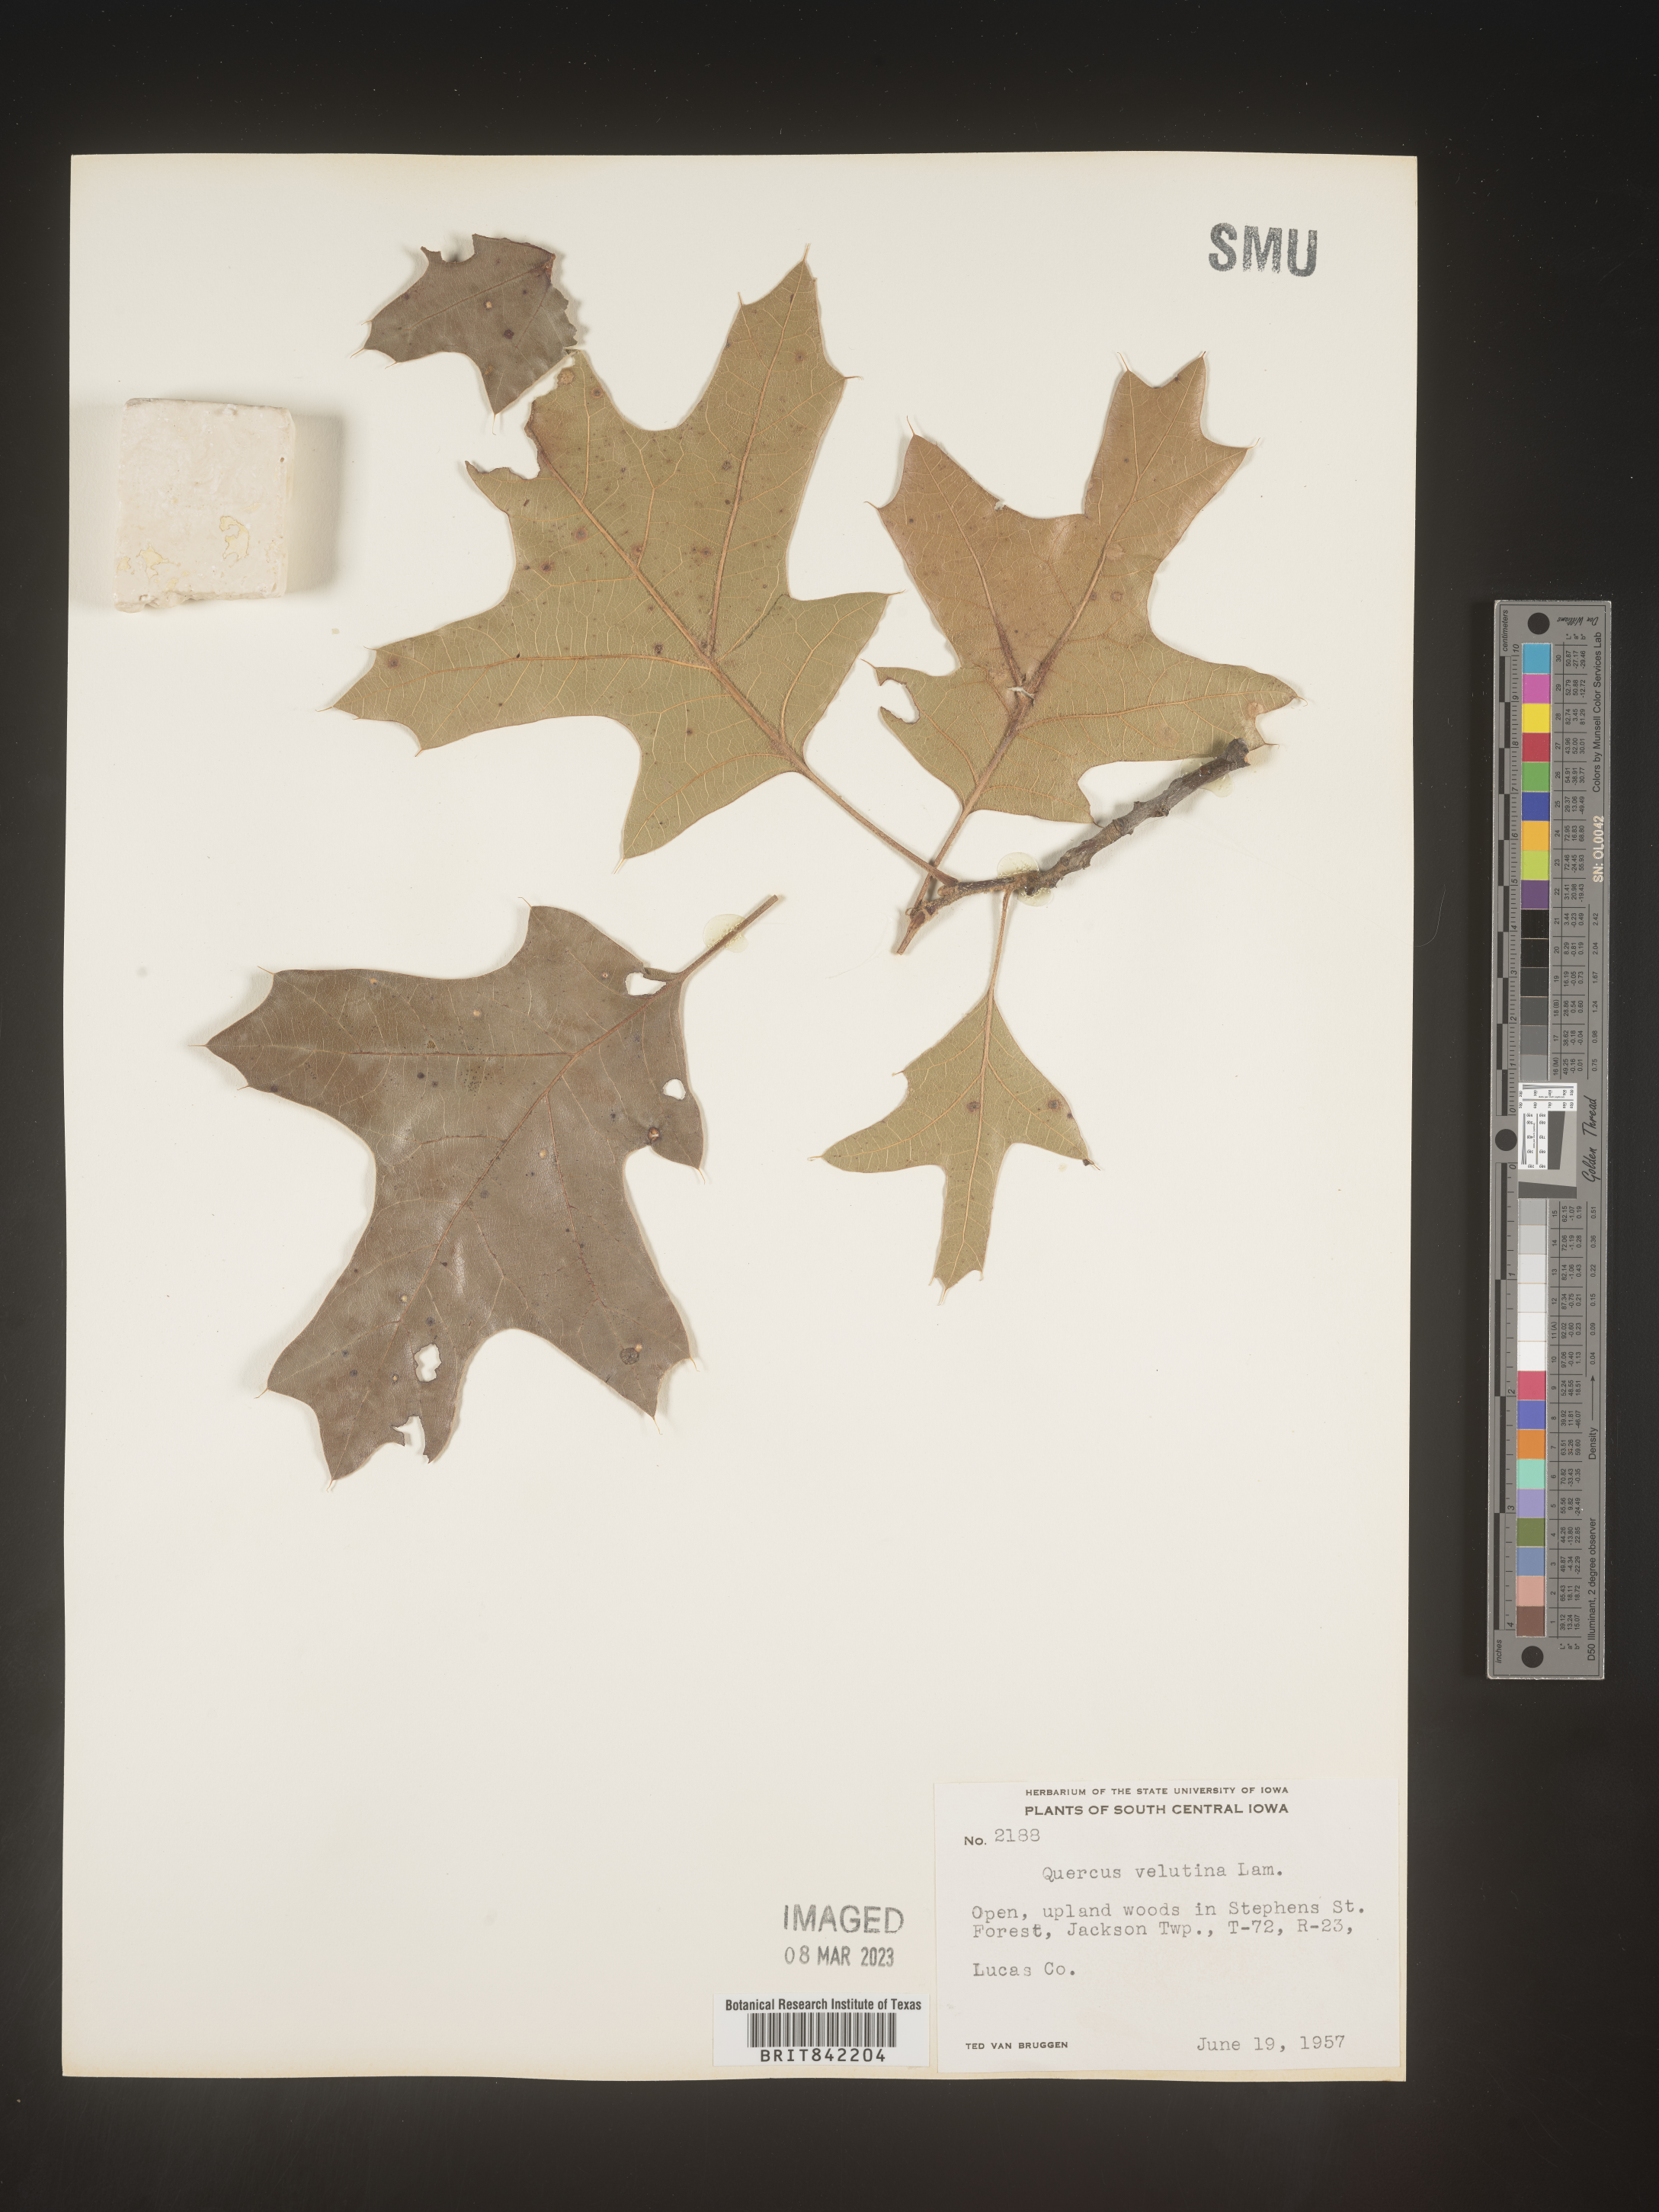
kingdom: Plantae
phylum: Tracheophyta
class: Magnoliopsida
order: Fagales
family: Fagaceae
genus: Quercus
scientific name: Quercus velutina
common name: Black oak
